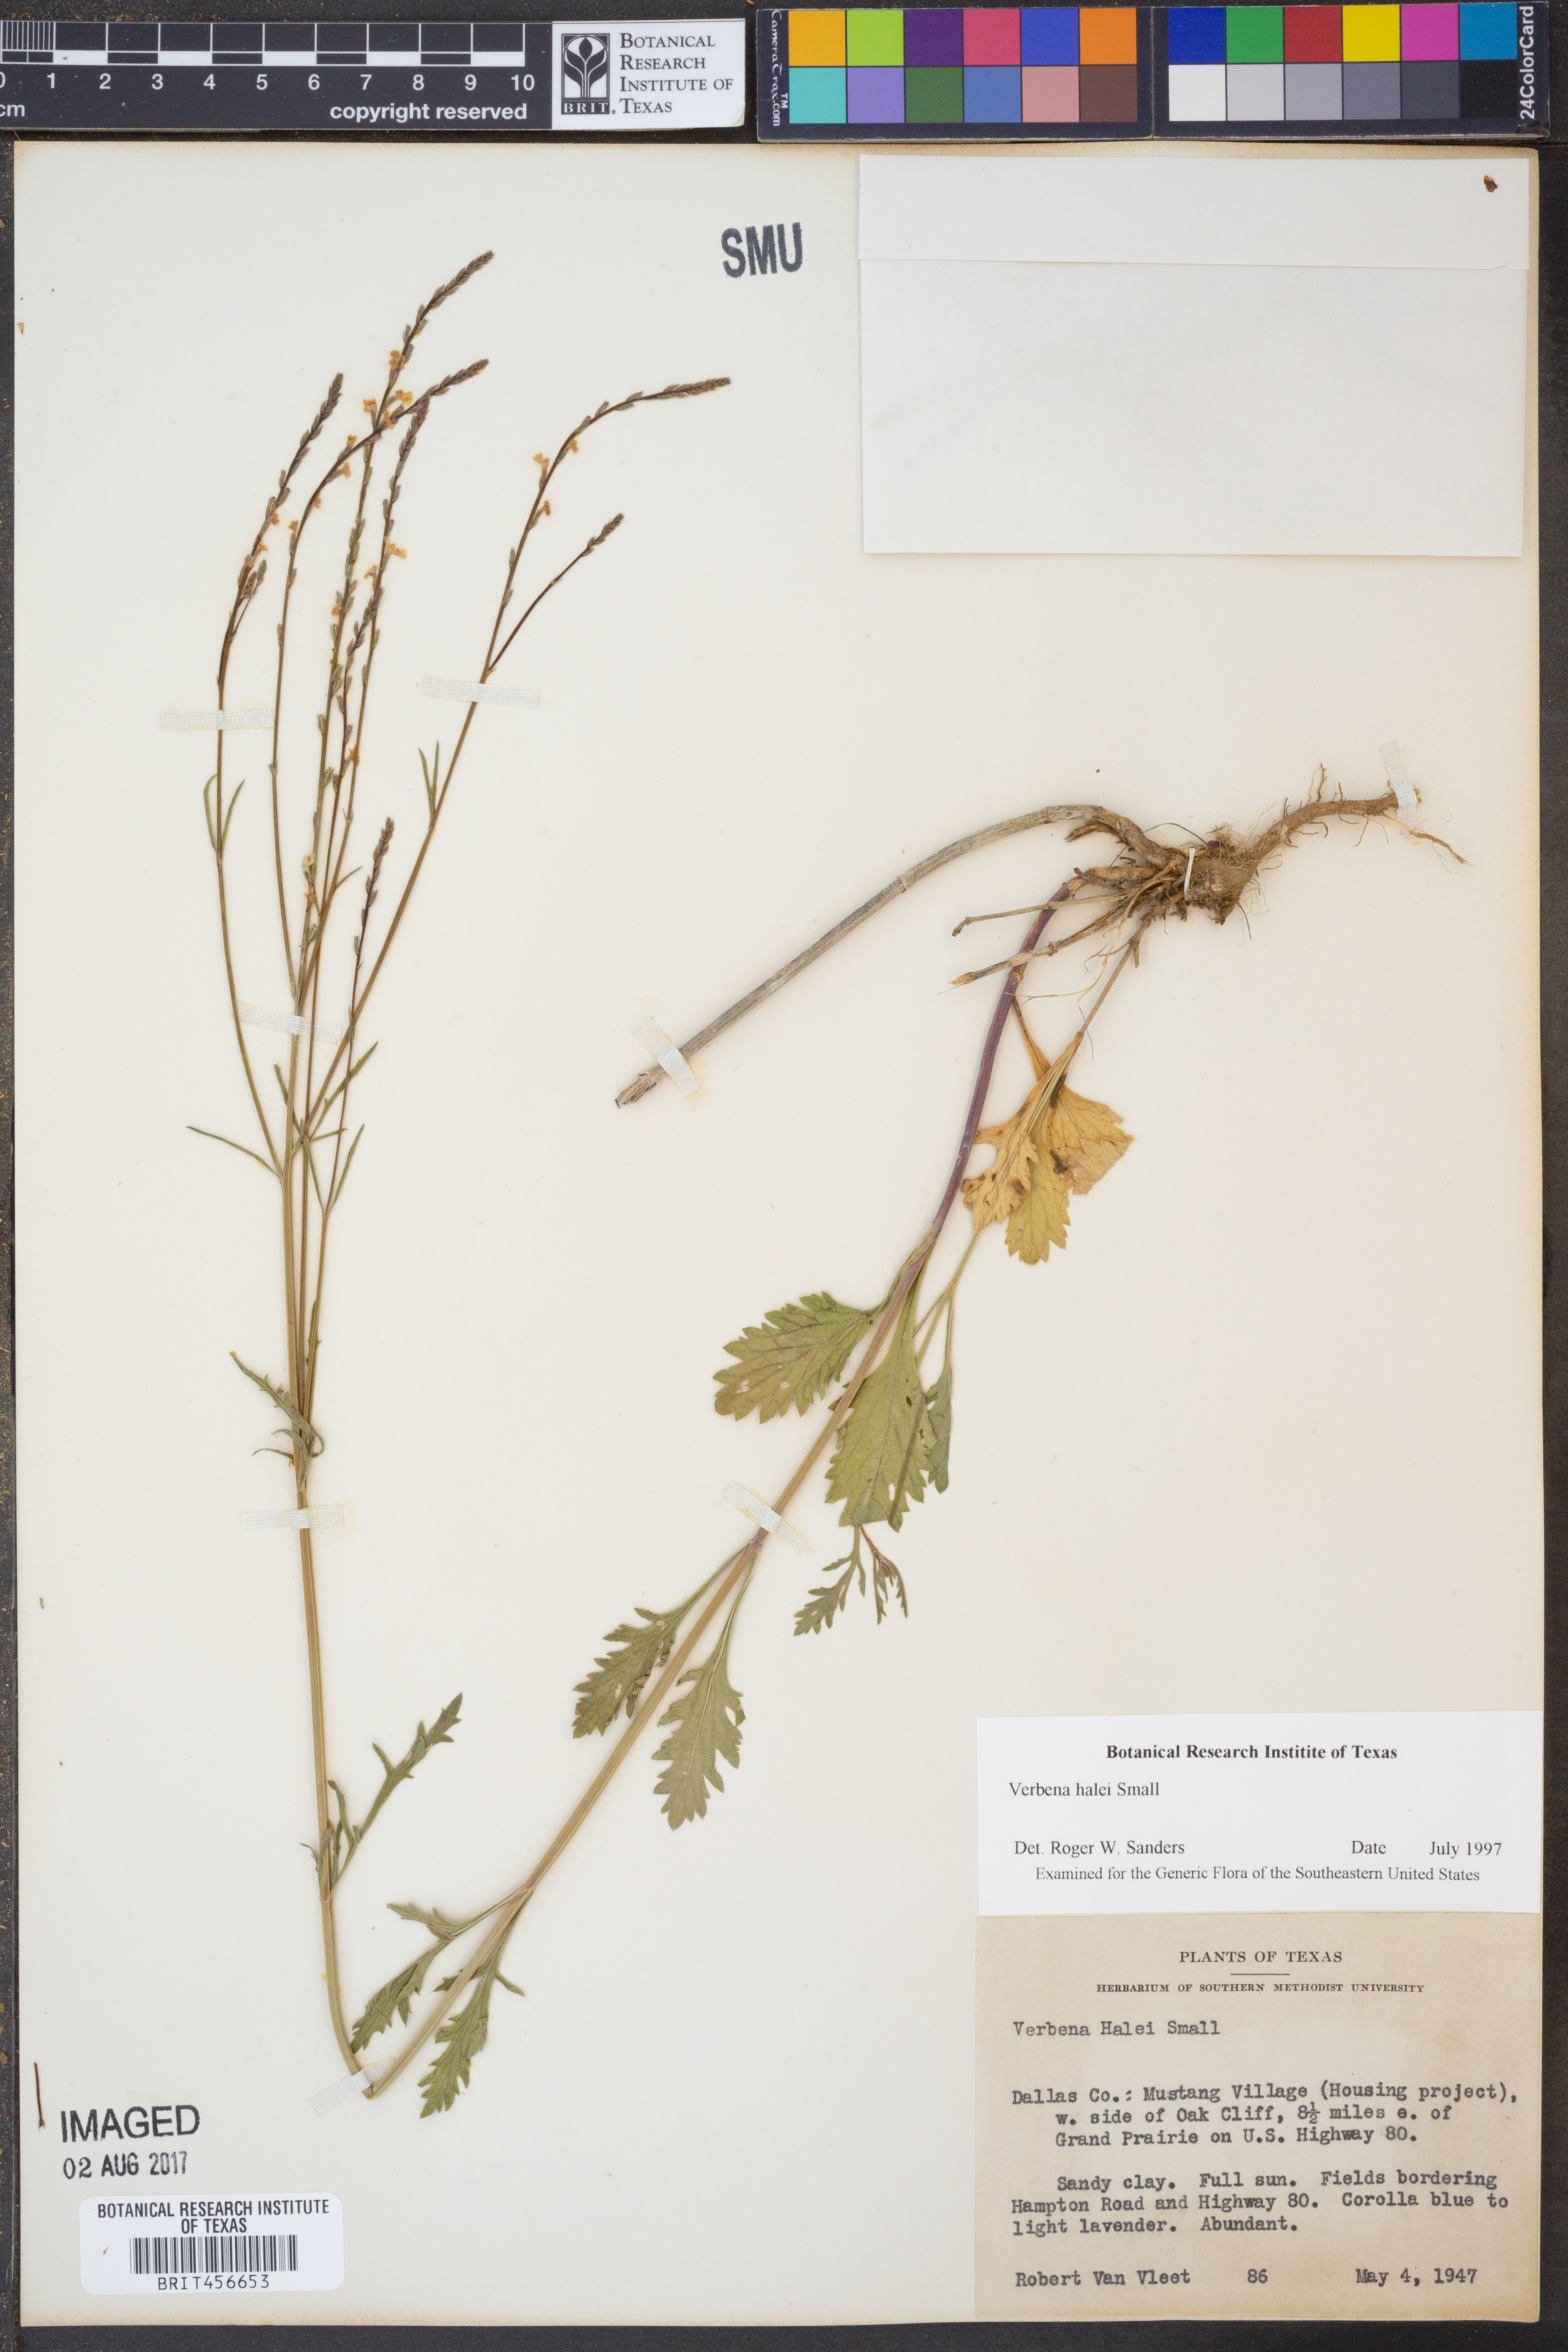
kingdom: Plantae
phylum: Tracheophyta
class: Magnoliopsida
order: Lamiales
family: Verbenaceae
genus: Verbena
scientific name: Verbena halei
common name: Texas vervain
